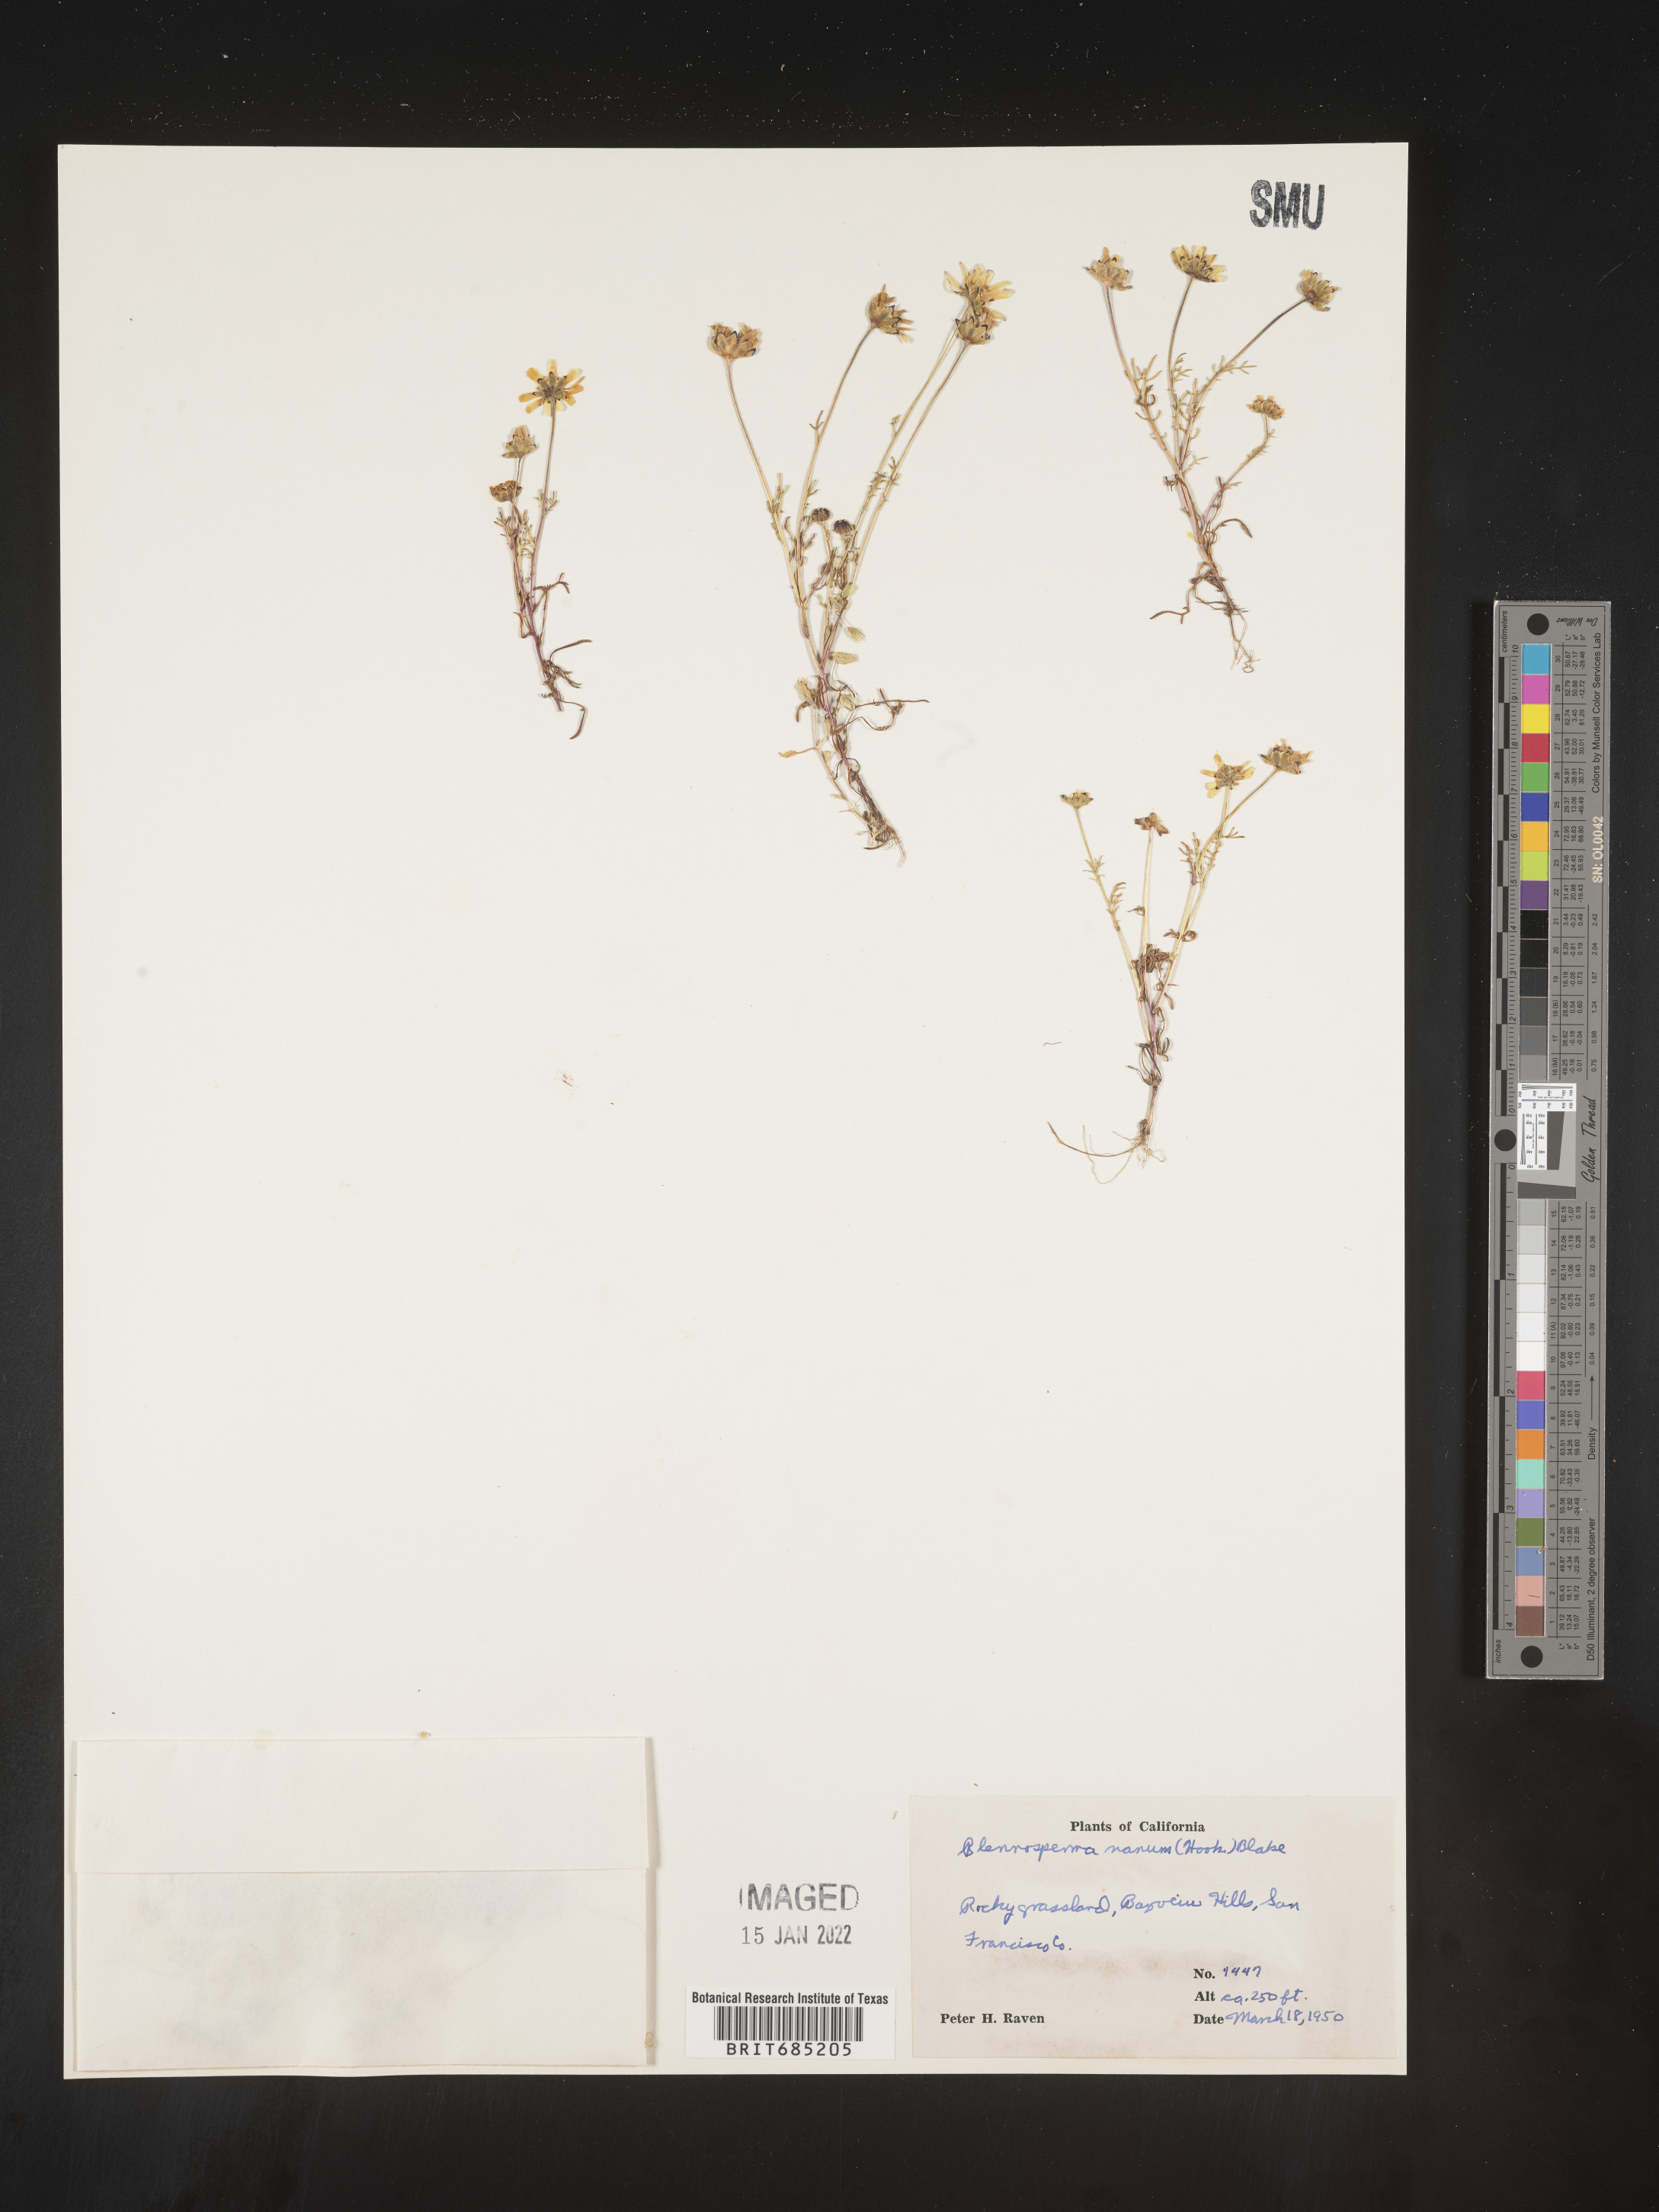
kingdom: Plantae
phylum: Tracheophyta
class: Magnoliopsida
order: Asterales
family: Asteraceae
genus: Blennosperma
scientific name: Blennosperma
